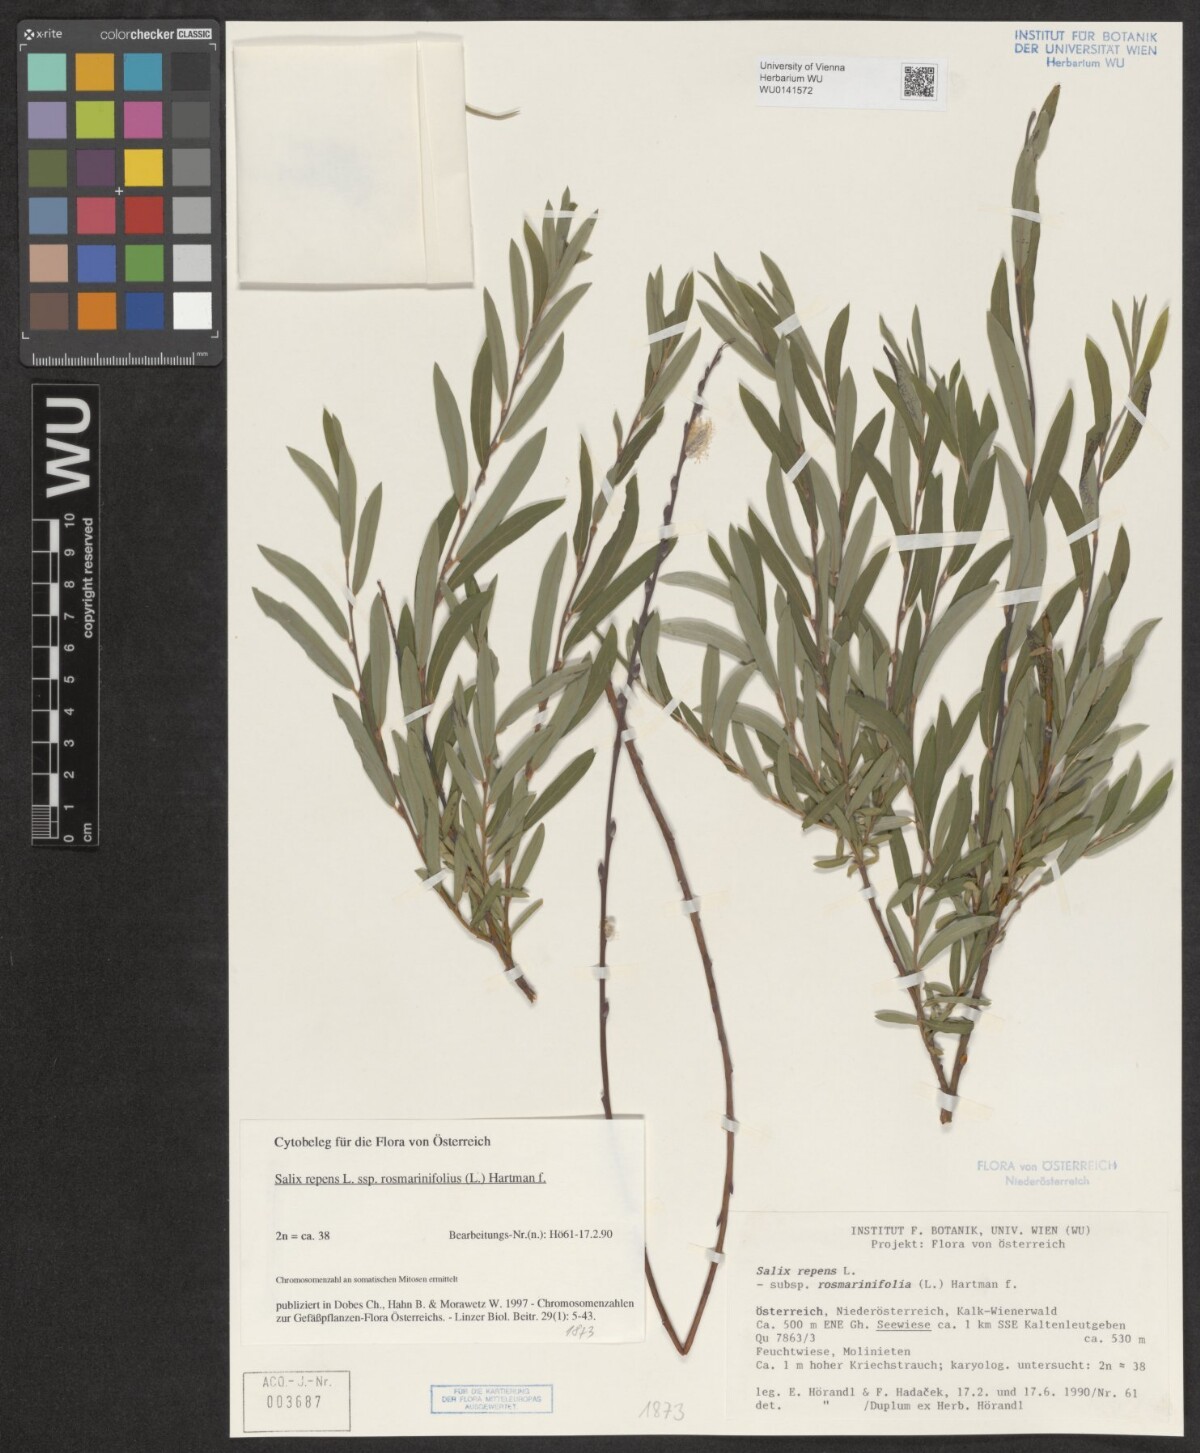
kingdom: Plantae
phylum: Tracheophyta
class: Magnoliopsida
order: Malpighiales
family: Salicaceae
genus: Salix
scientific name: Salix repens
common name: Creeping willow
